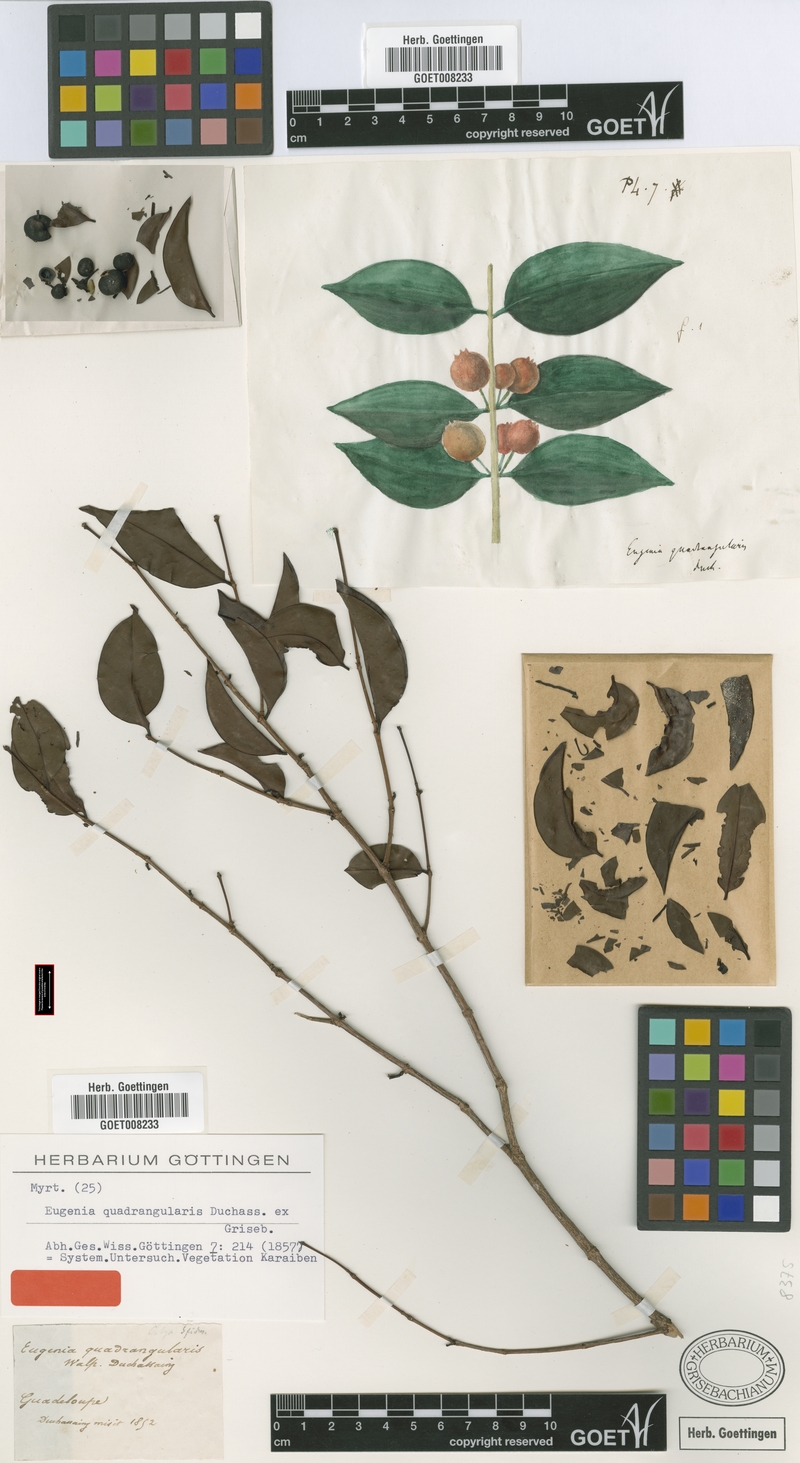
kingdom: Plantae
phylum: Tracheophyta
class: Magnoliopsida
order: Myrtales
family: Melastomataceae
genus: Mouriri
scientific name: Mouriri domingensis
